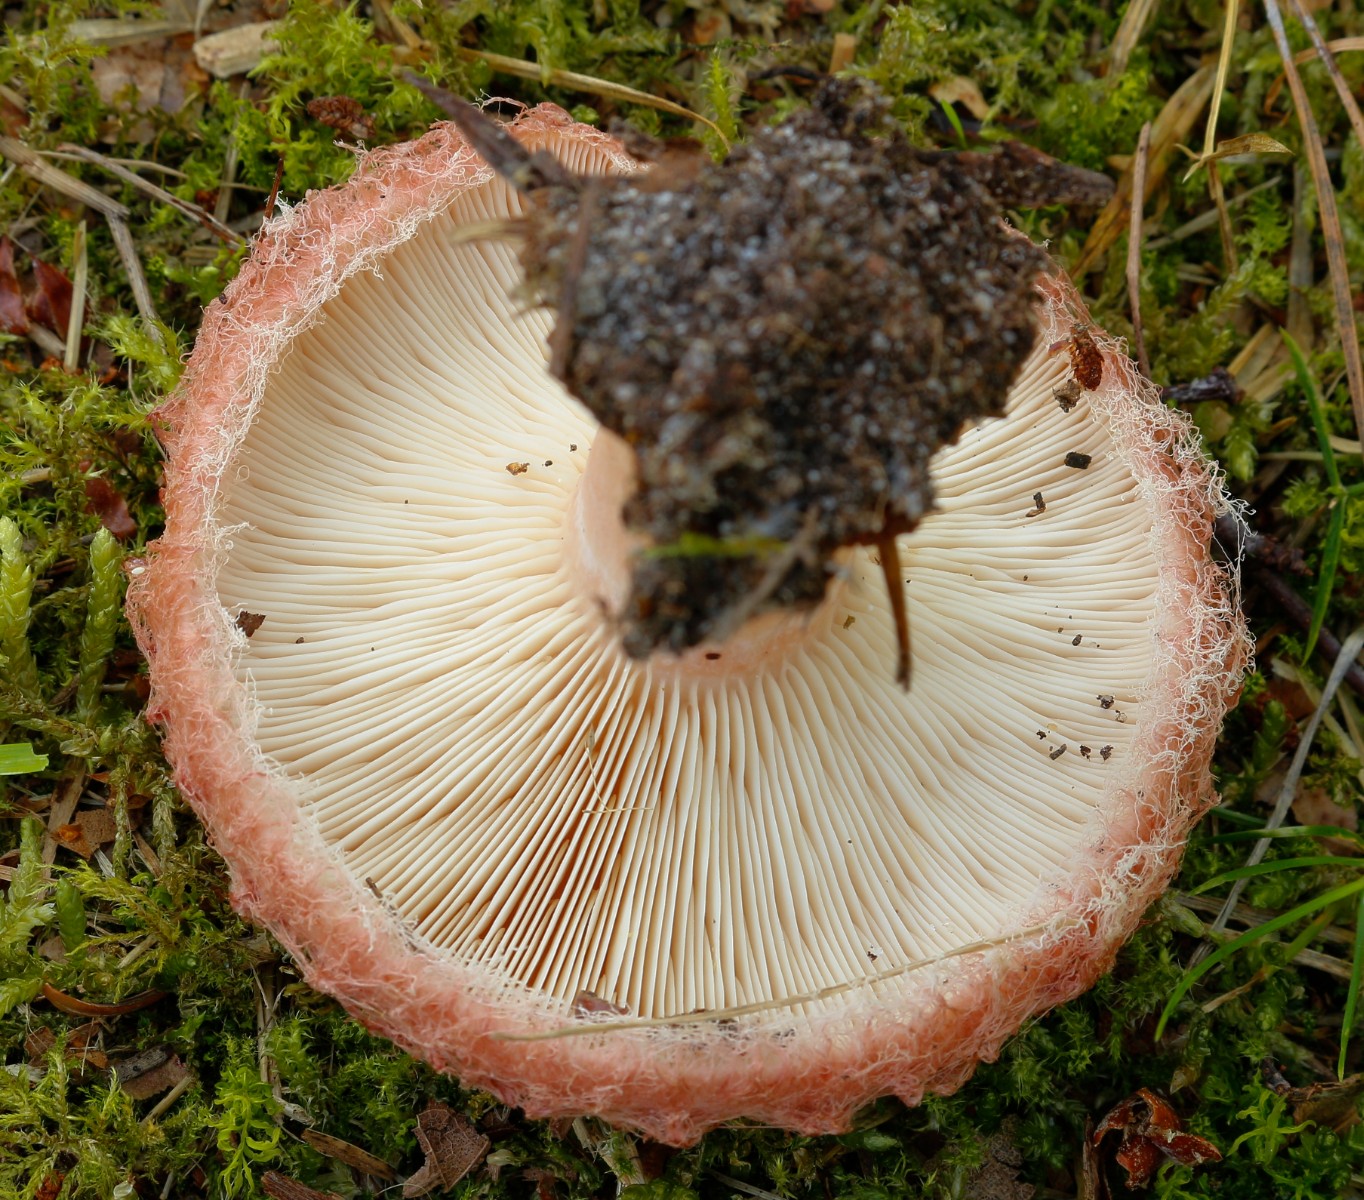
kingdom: Fungi
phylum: Basidiomycota
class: Agaricomycetes
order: Russulales
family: Russulaceae
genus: Lactarius
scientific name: Lactarius torminosus
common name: skægget mælkehat
